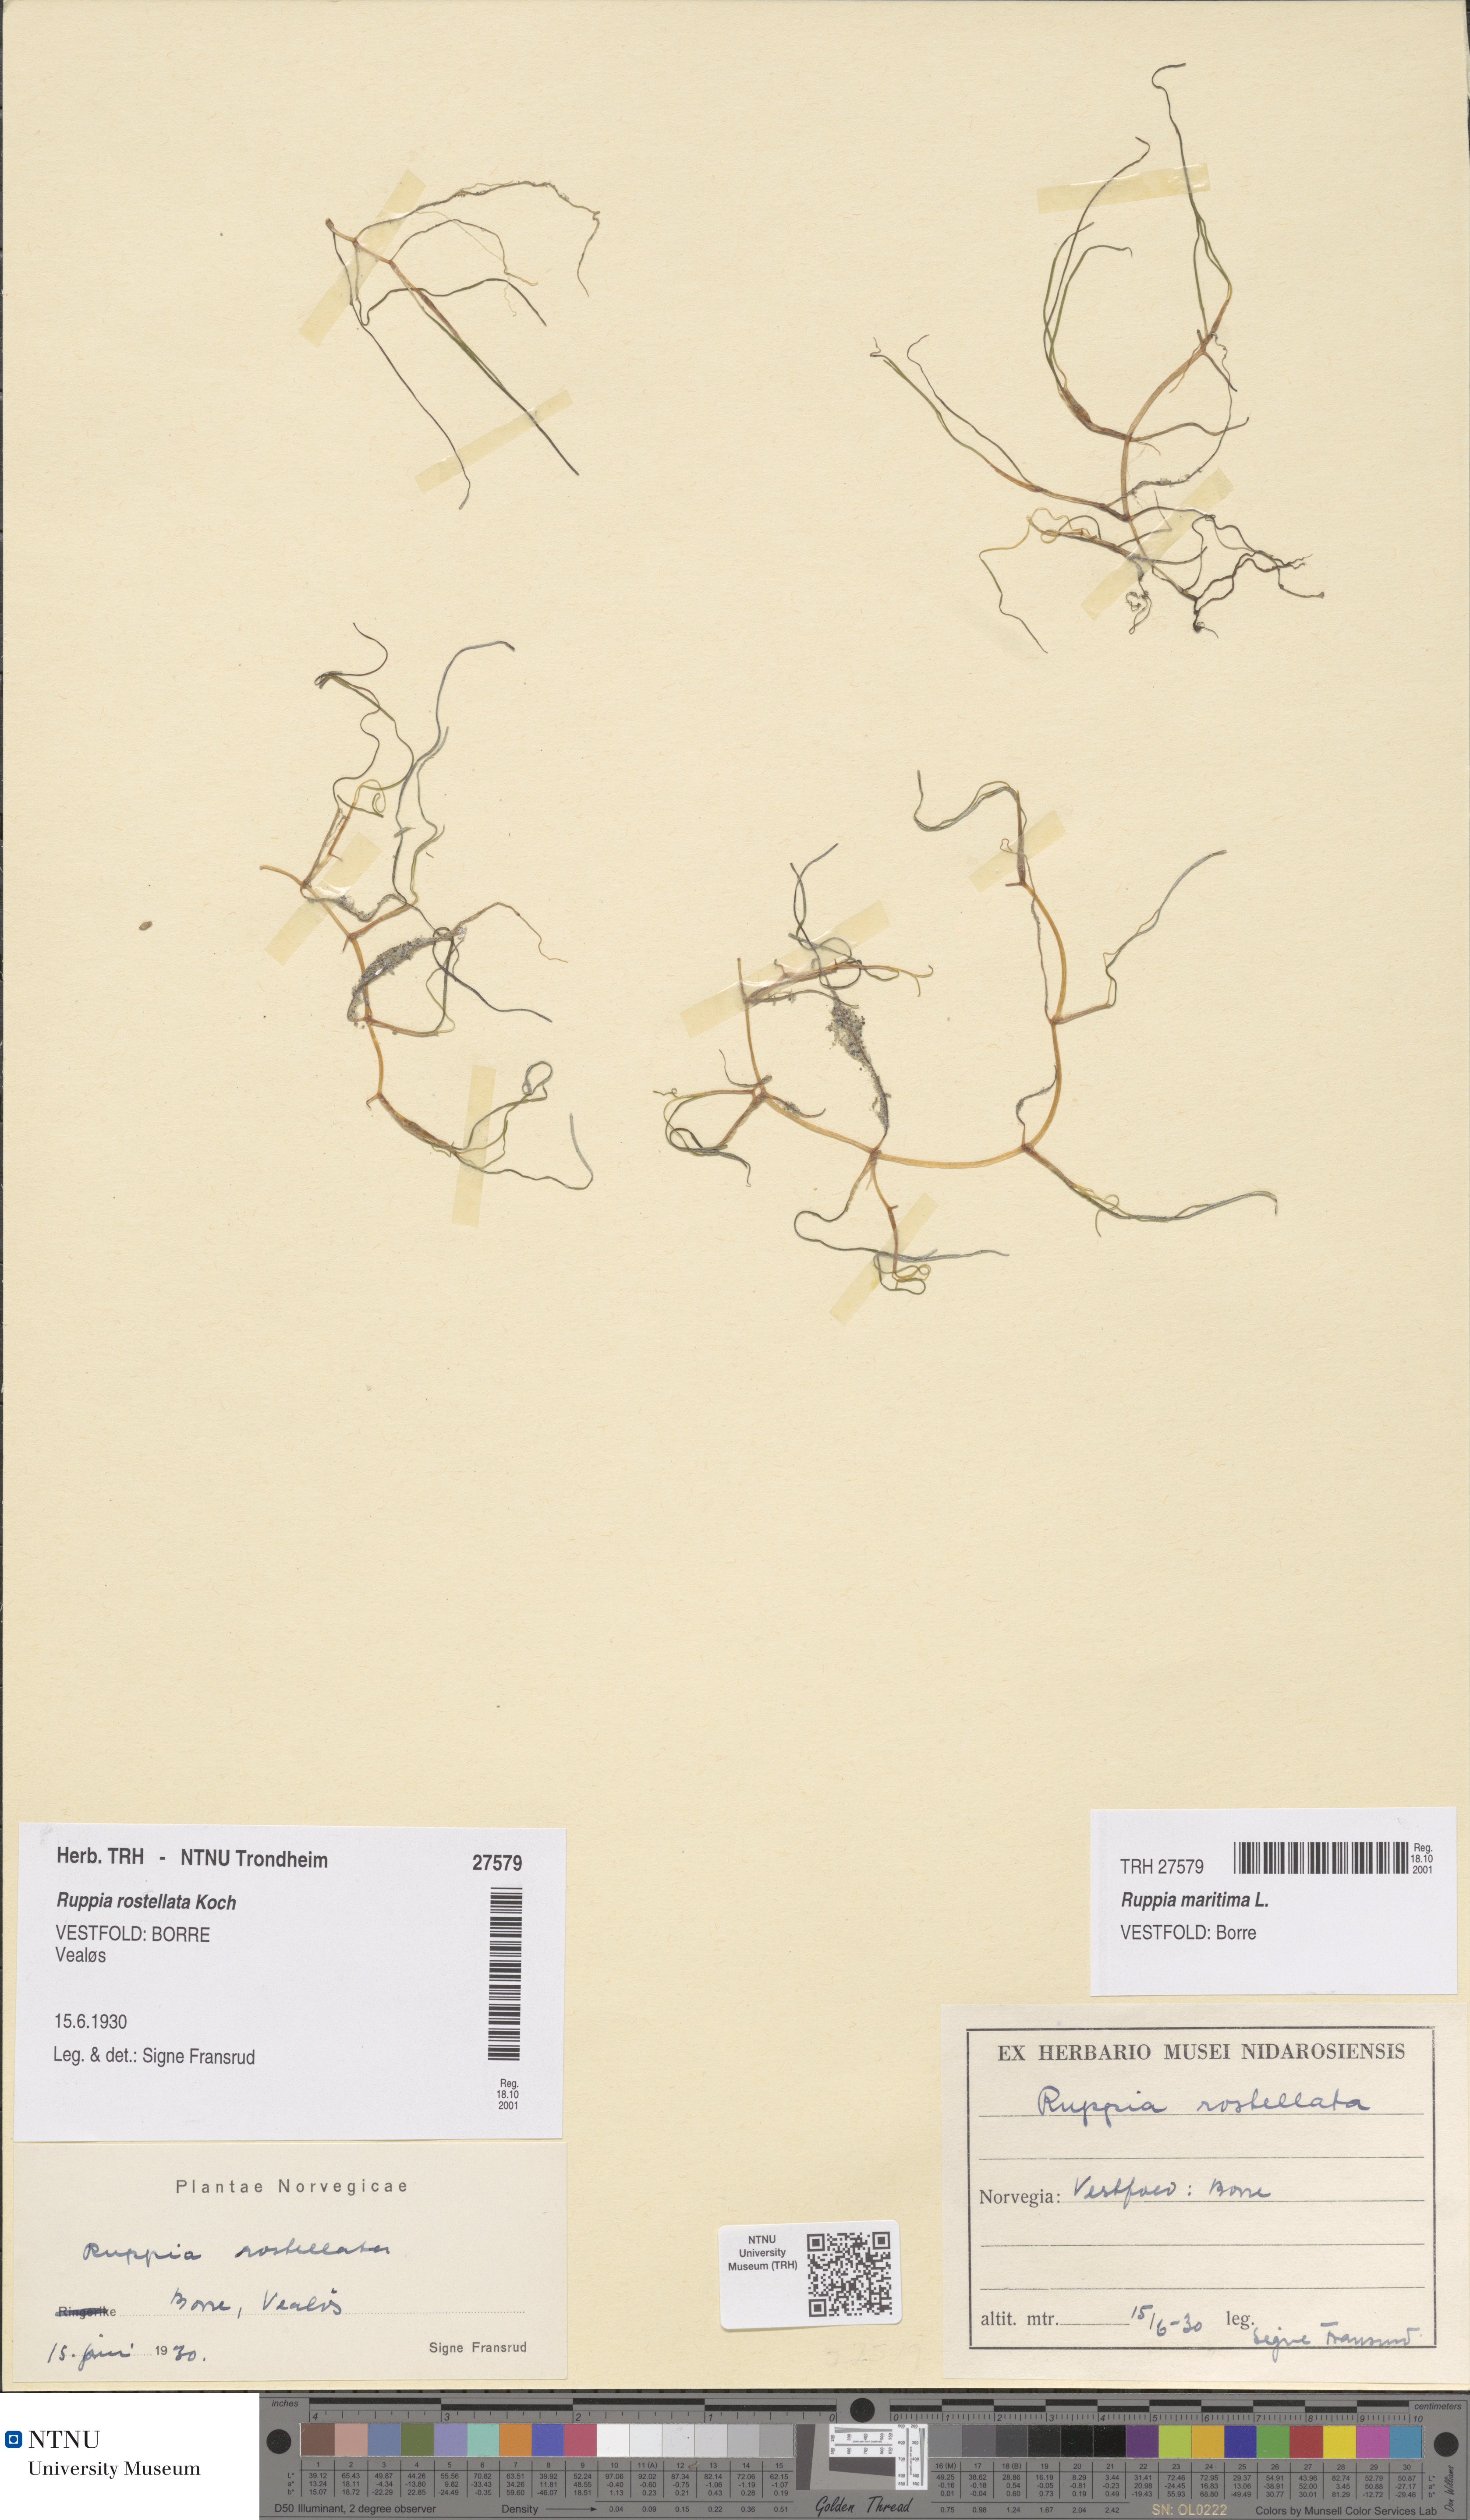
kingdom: Plantae
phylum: Tracheophyta
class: Liliopsida
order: Alismatales
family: Ruppiaceae
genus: Ruppia
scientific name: Ruppia maritima
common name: Beaked tasselweed
